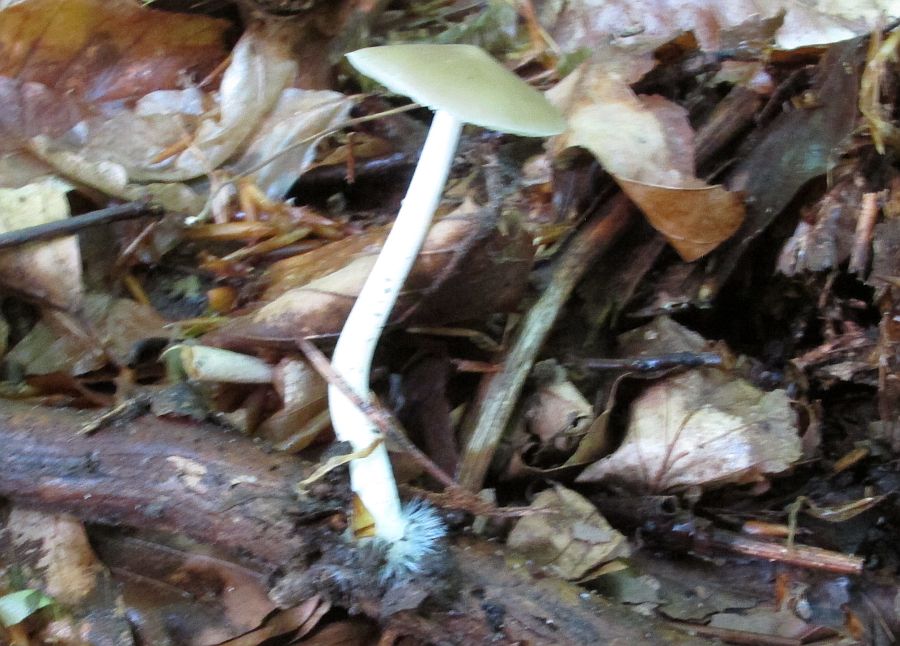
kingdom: Fungi
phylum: Basidiomycota
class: Agaricomycetes
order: Agaricales
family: Porotheleaceae
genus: Hydropodia
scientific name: Hydropodia subalpina
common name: vår-fnugfod
